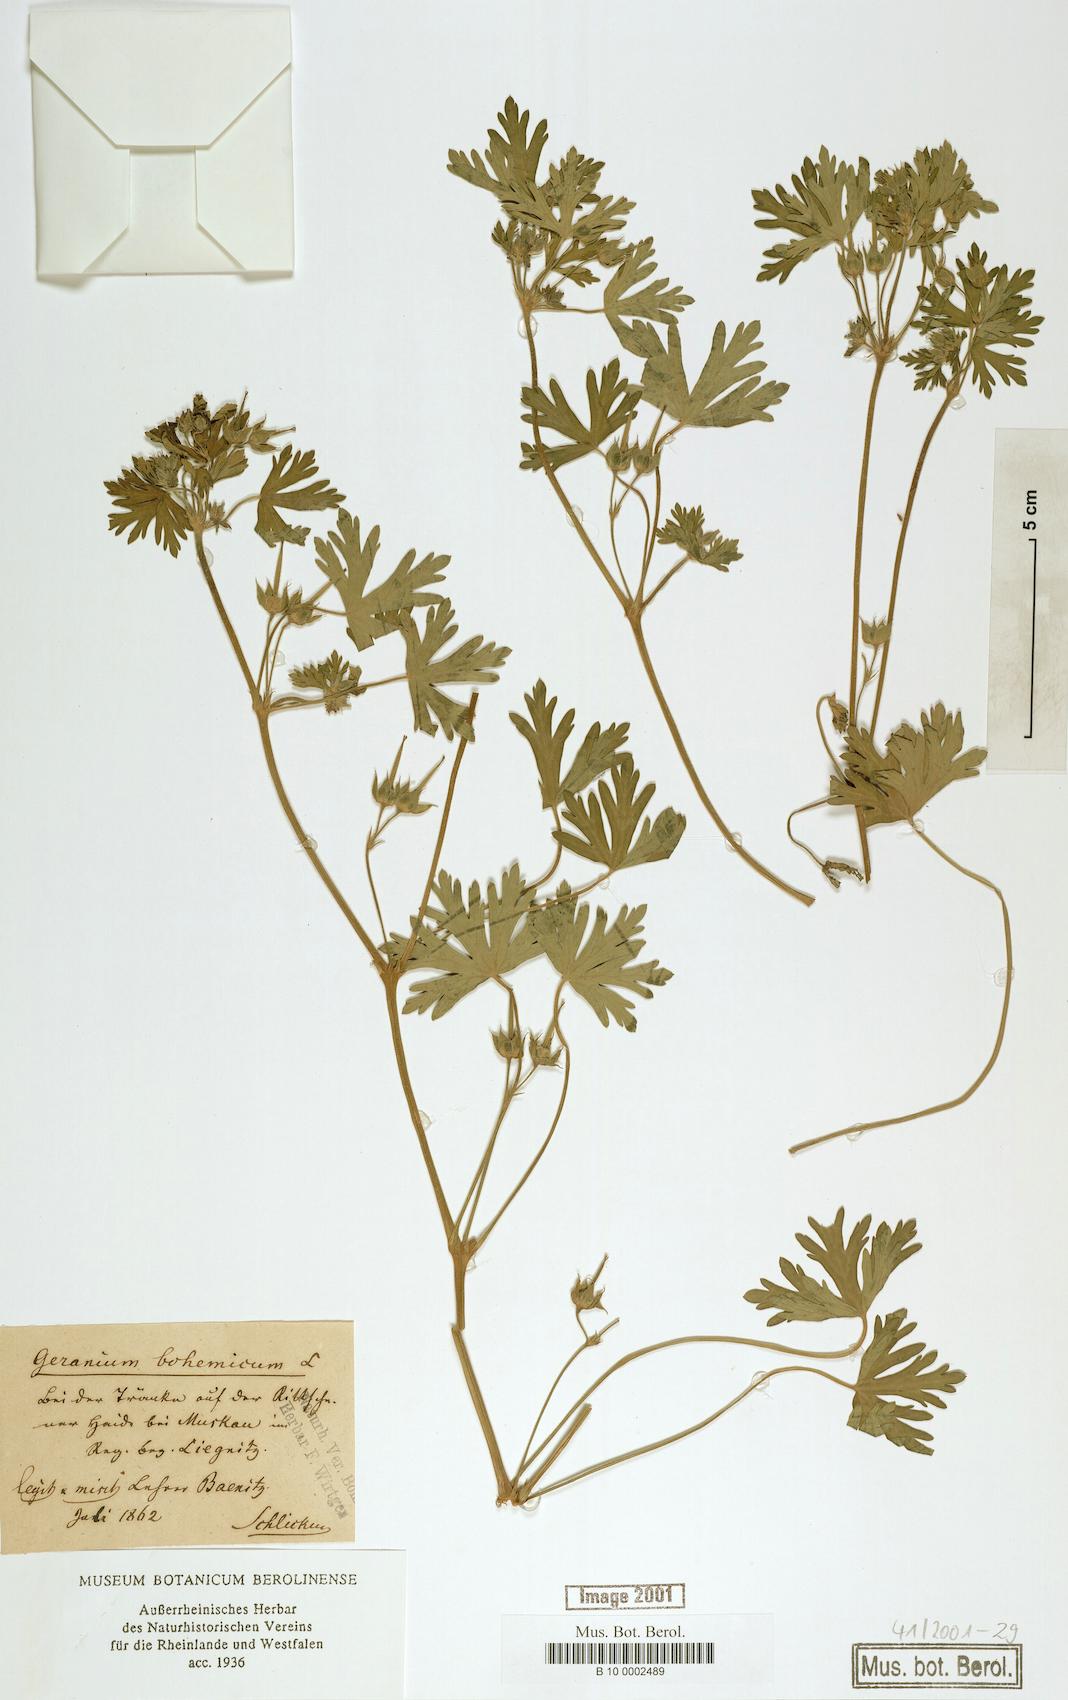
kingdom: Plantae
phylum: Tracheophyta
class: Magnoliopsida
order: Geraniales
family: Geraniaceae
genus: Geranium
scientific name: Geranium bohemicum
